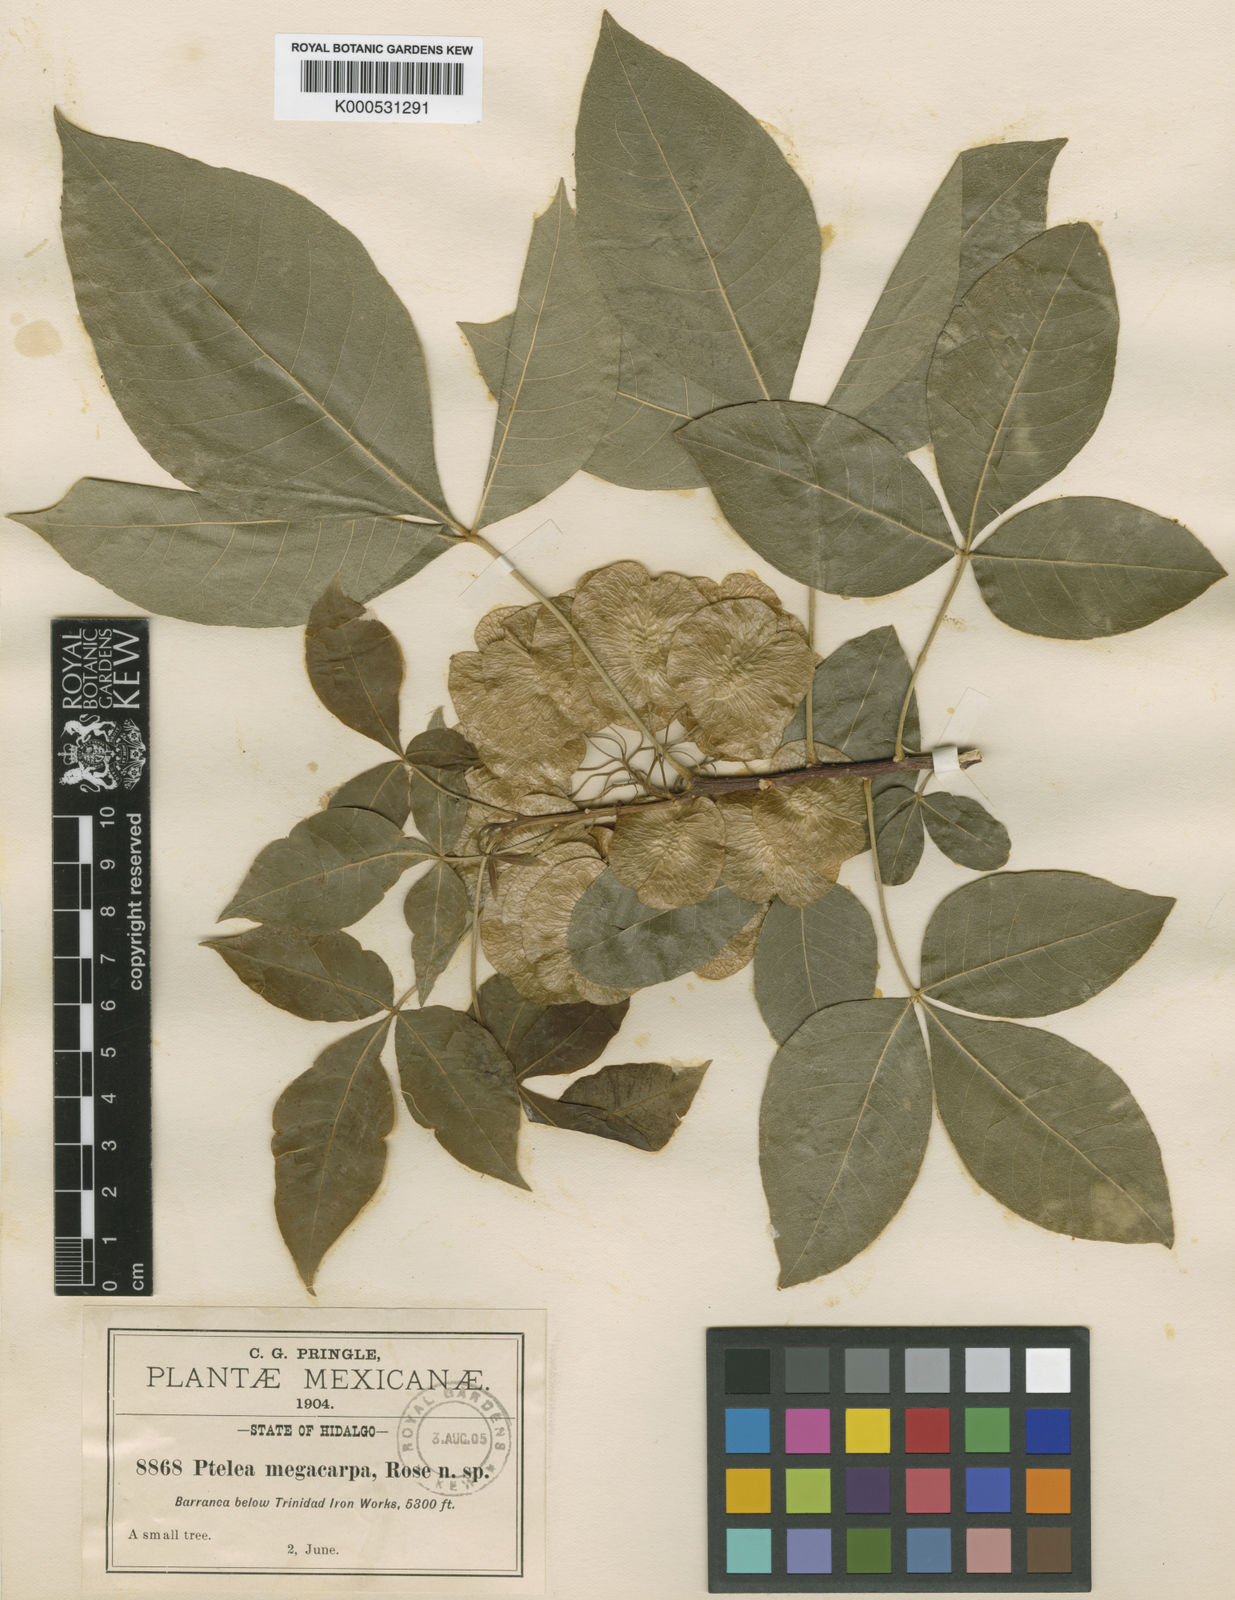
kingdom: Plantae
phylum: Tracheophyta
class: Magnoliopsida
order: Sapindales
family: Rutaceae
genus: Ptelea
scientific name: Ptelea
